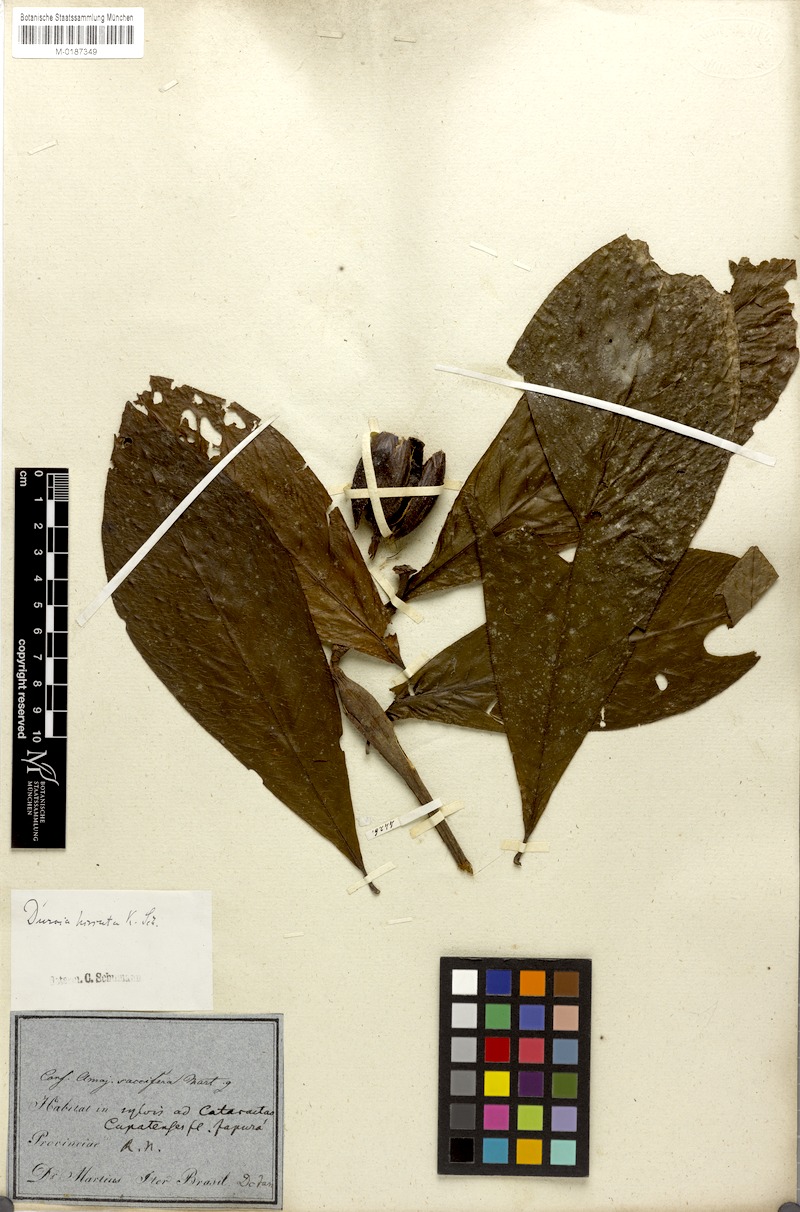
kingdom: Plantae
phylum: Tracheophyta
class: Magnoliopsida
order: Gentianales
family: Rubiaceae
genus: Duroia
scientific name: Duroia hirsuta
